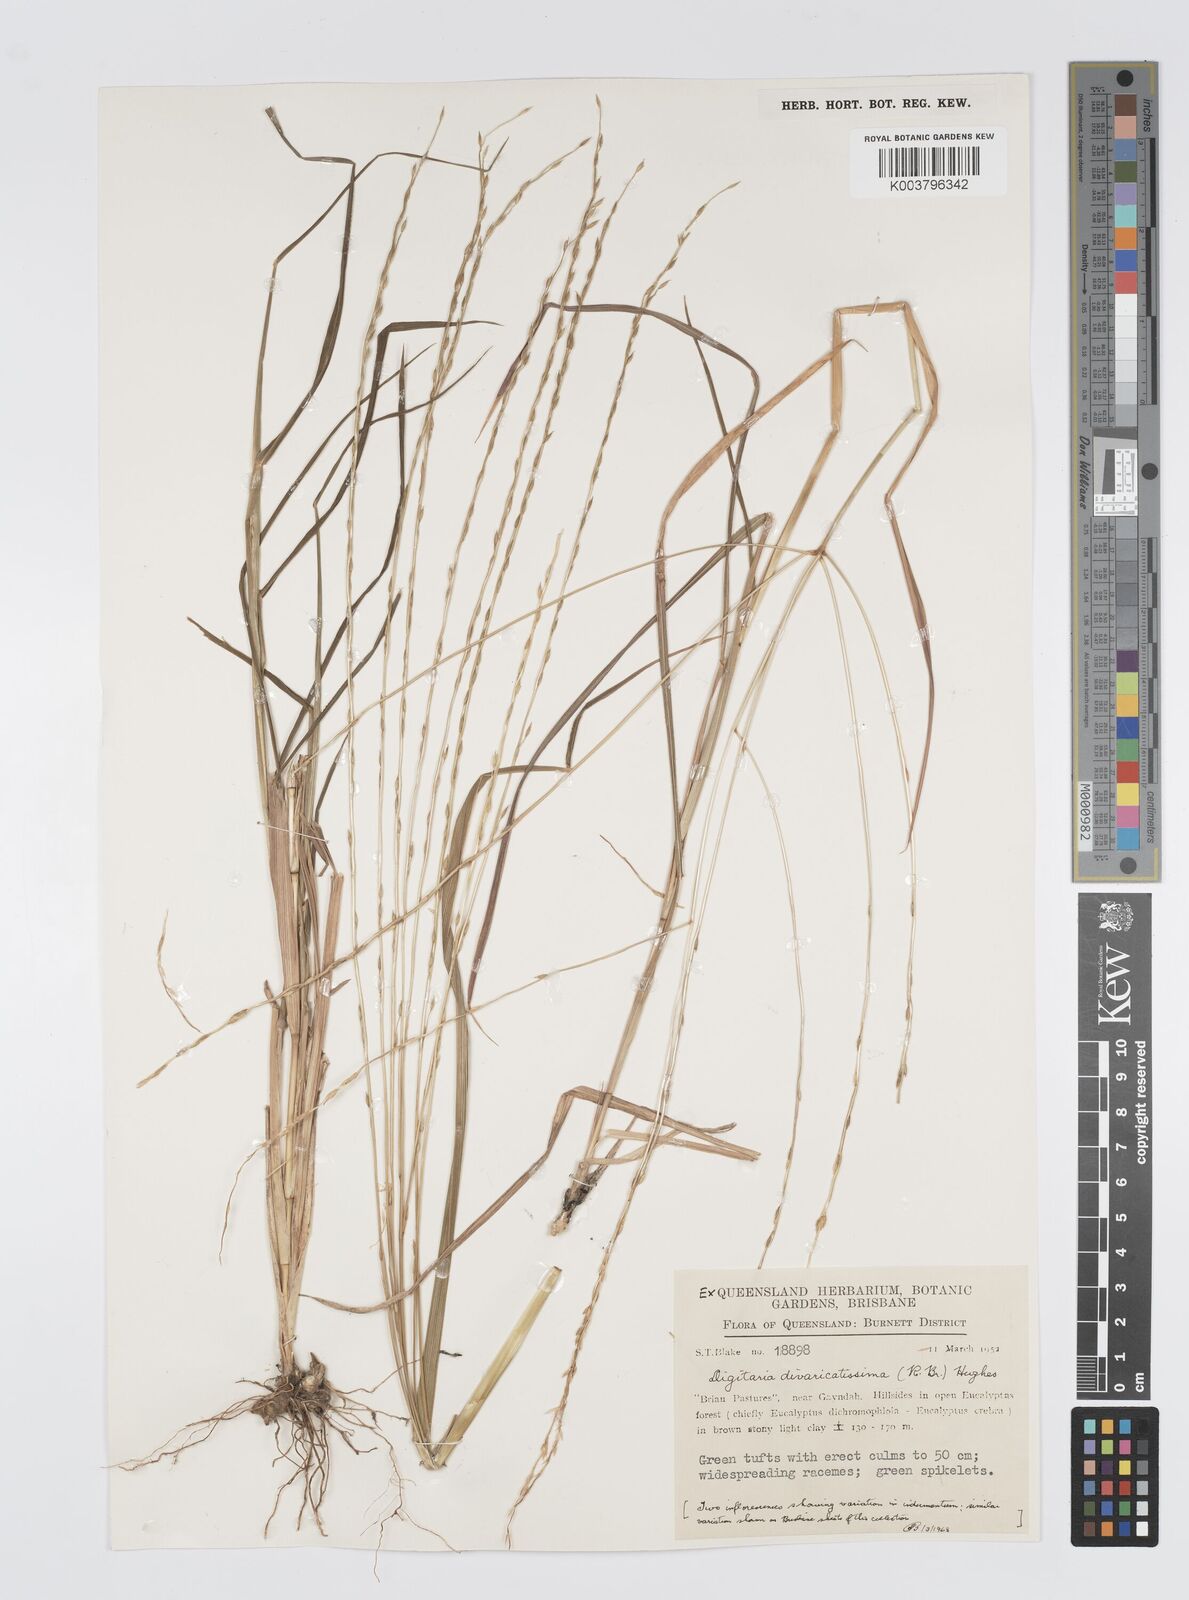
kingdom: Plantae
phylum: Tracheophyta
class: Liliopsida
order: Poales
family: Poaceae
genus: Digitaria
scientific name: Digitaria divaricatissima
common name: Crabgrass
